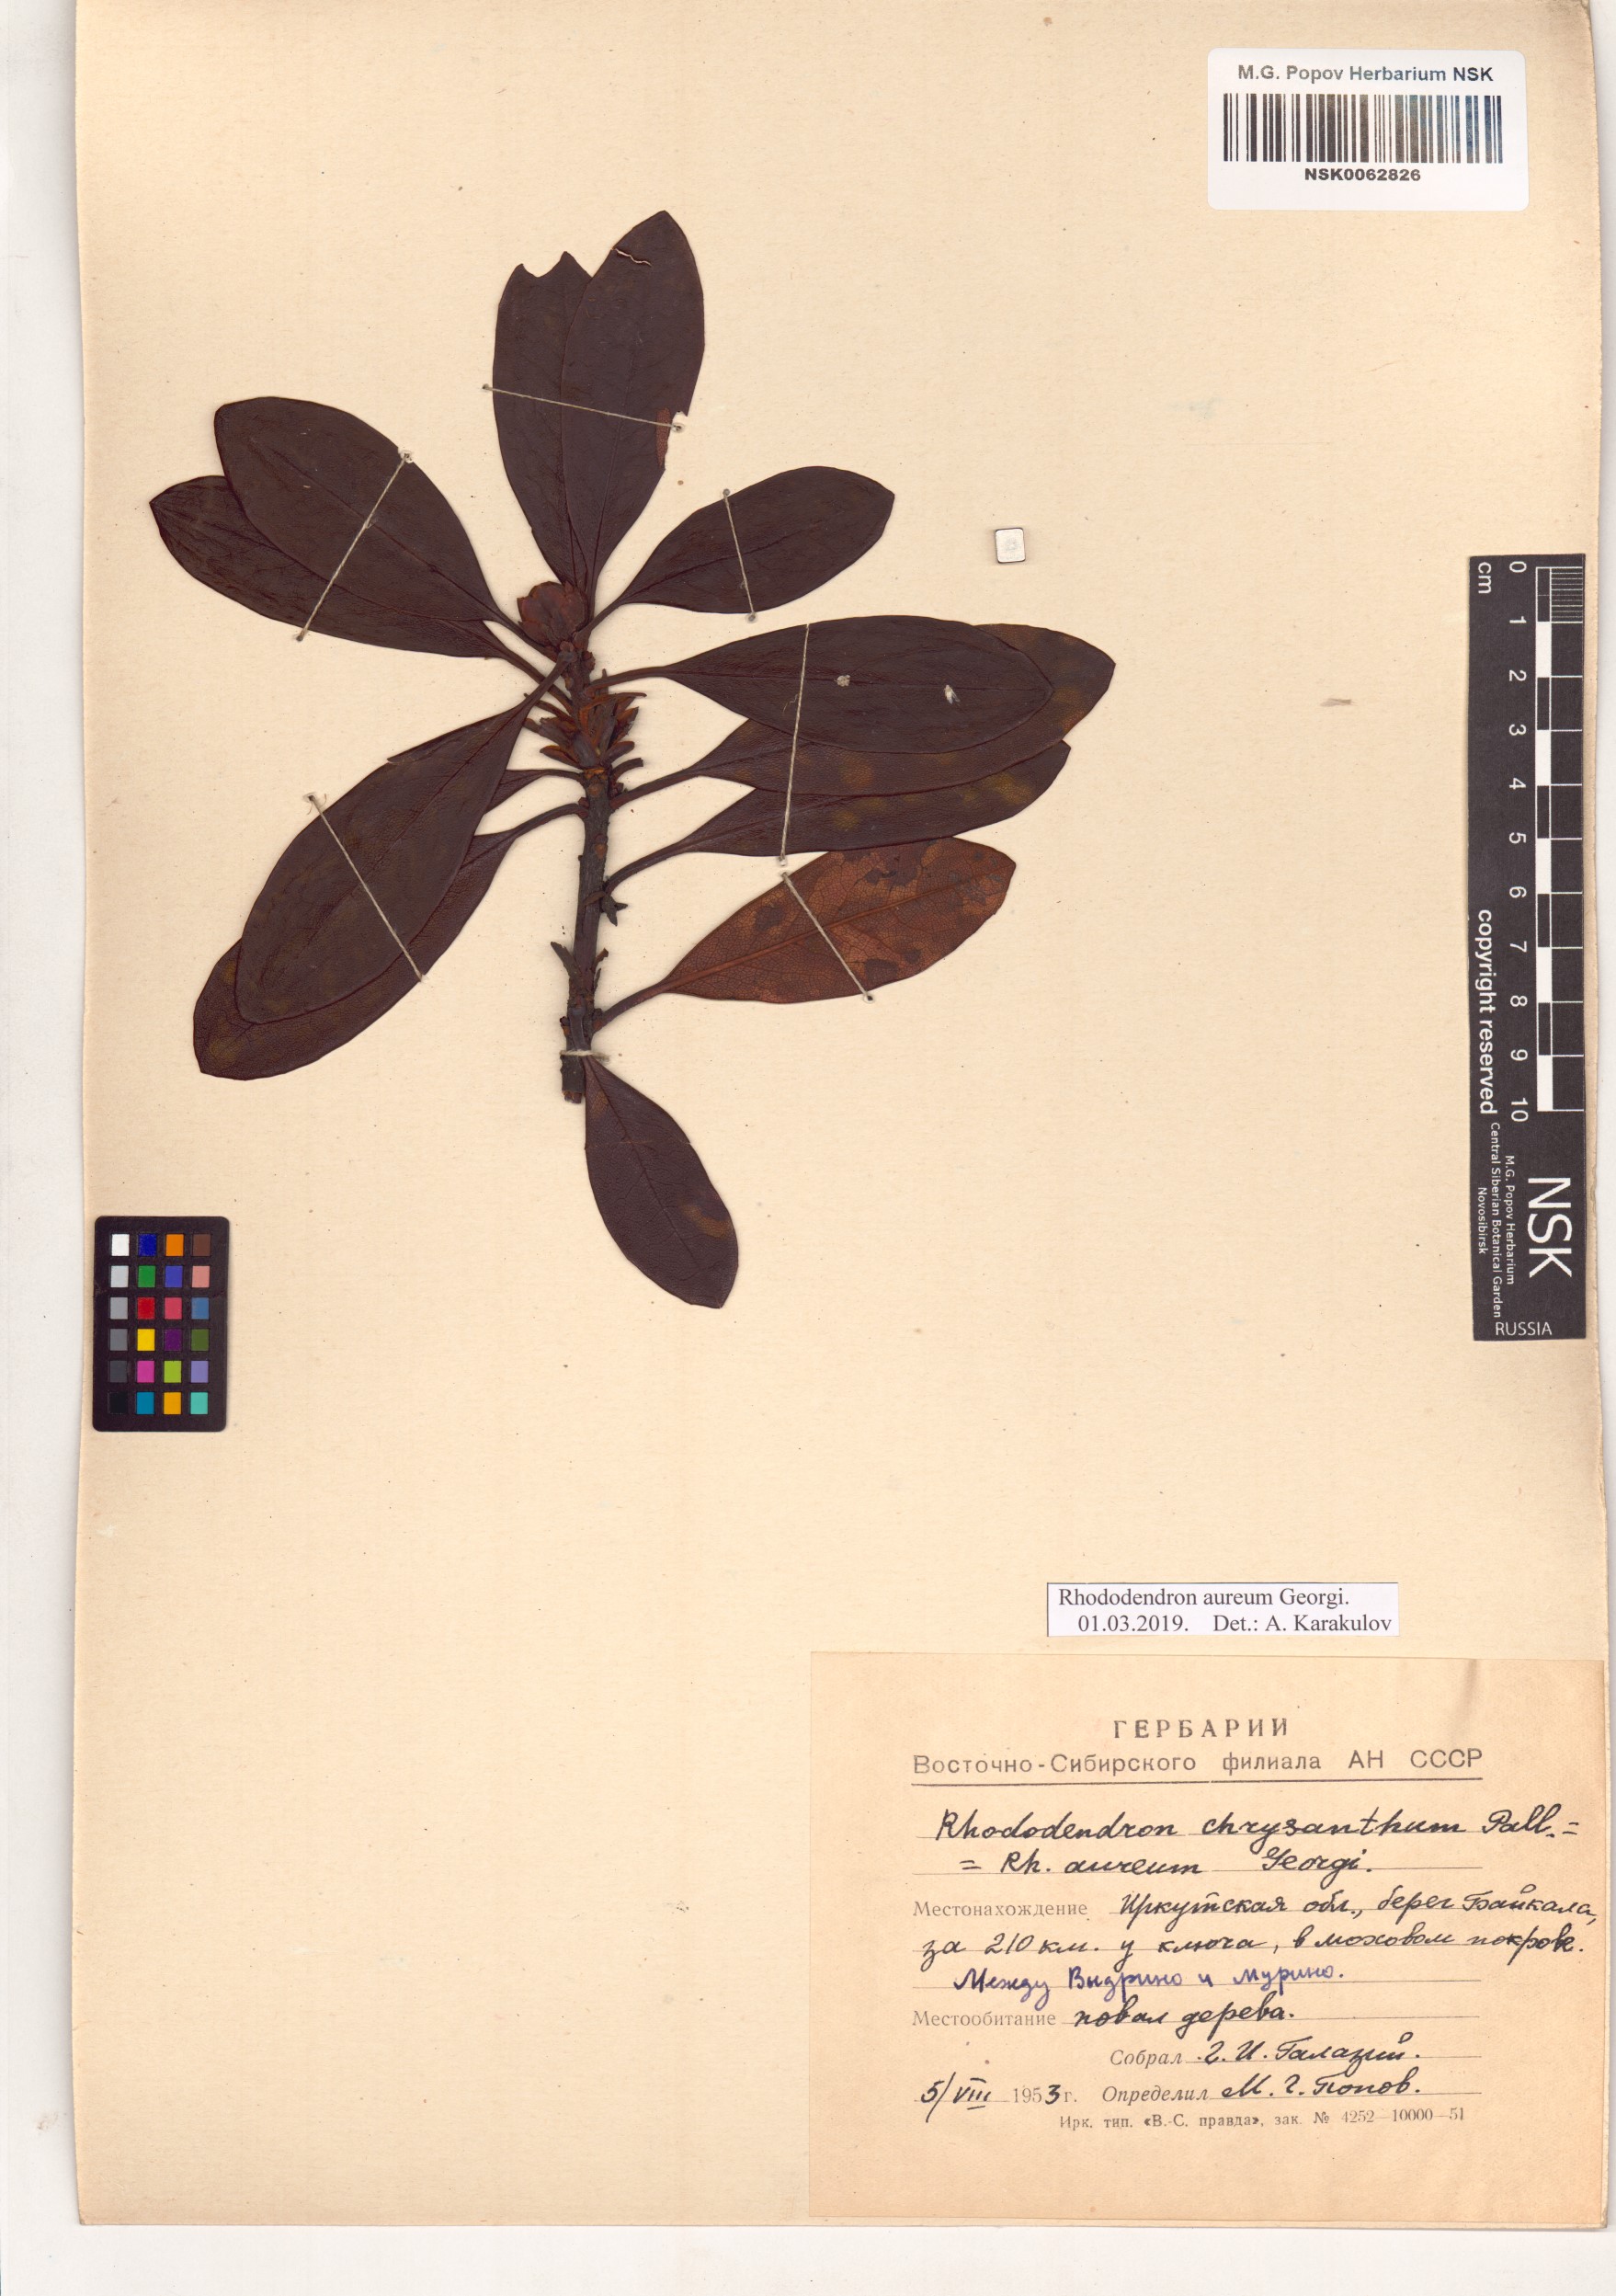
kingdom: Plantae
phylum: Tracheophyta
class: Magnoliopsida
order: Ericales
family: Ericaceae
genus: Rhododendron
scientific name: Rhododendron aureum
